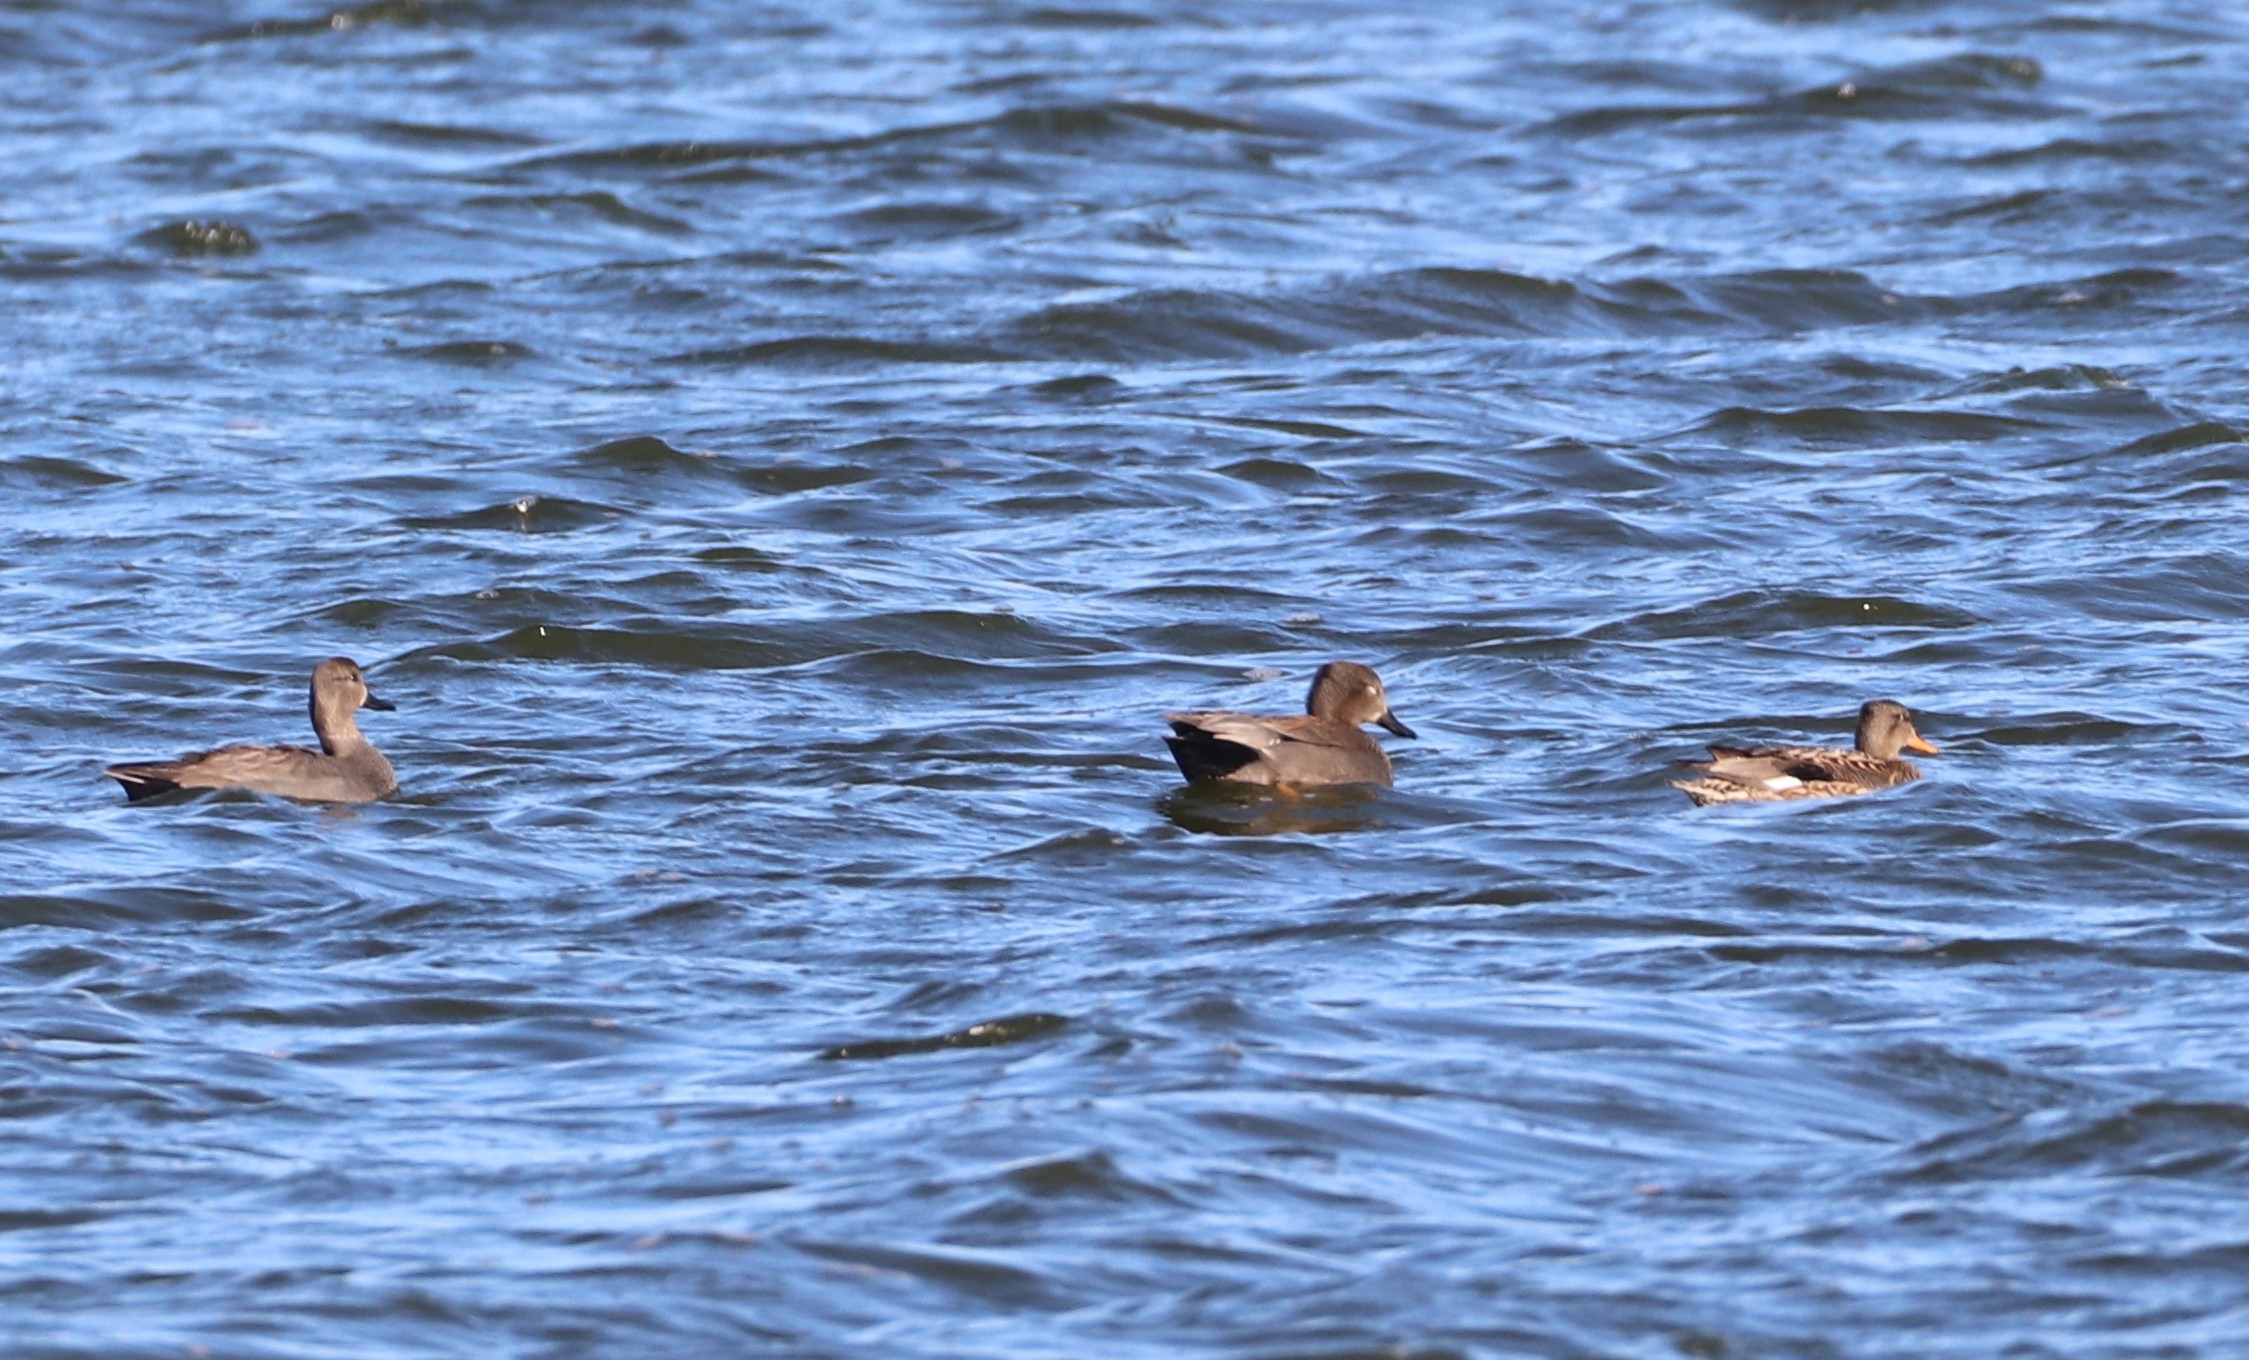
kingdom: Animalia
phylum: Chordata
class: Aves
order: Anseriformes
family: Anatidae
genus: Mareca
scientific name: Mareca strepera
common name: Knarand
